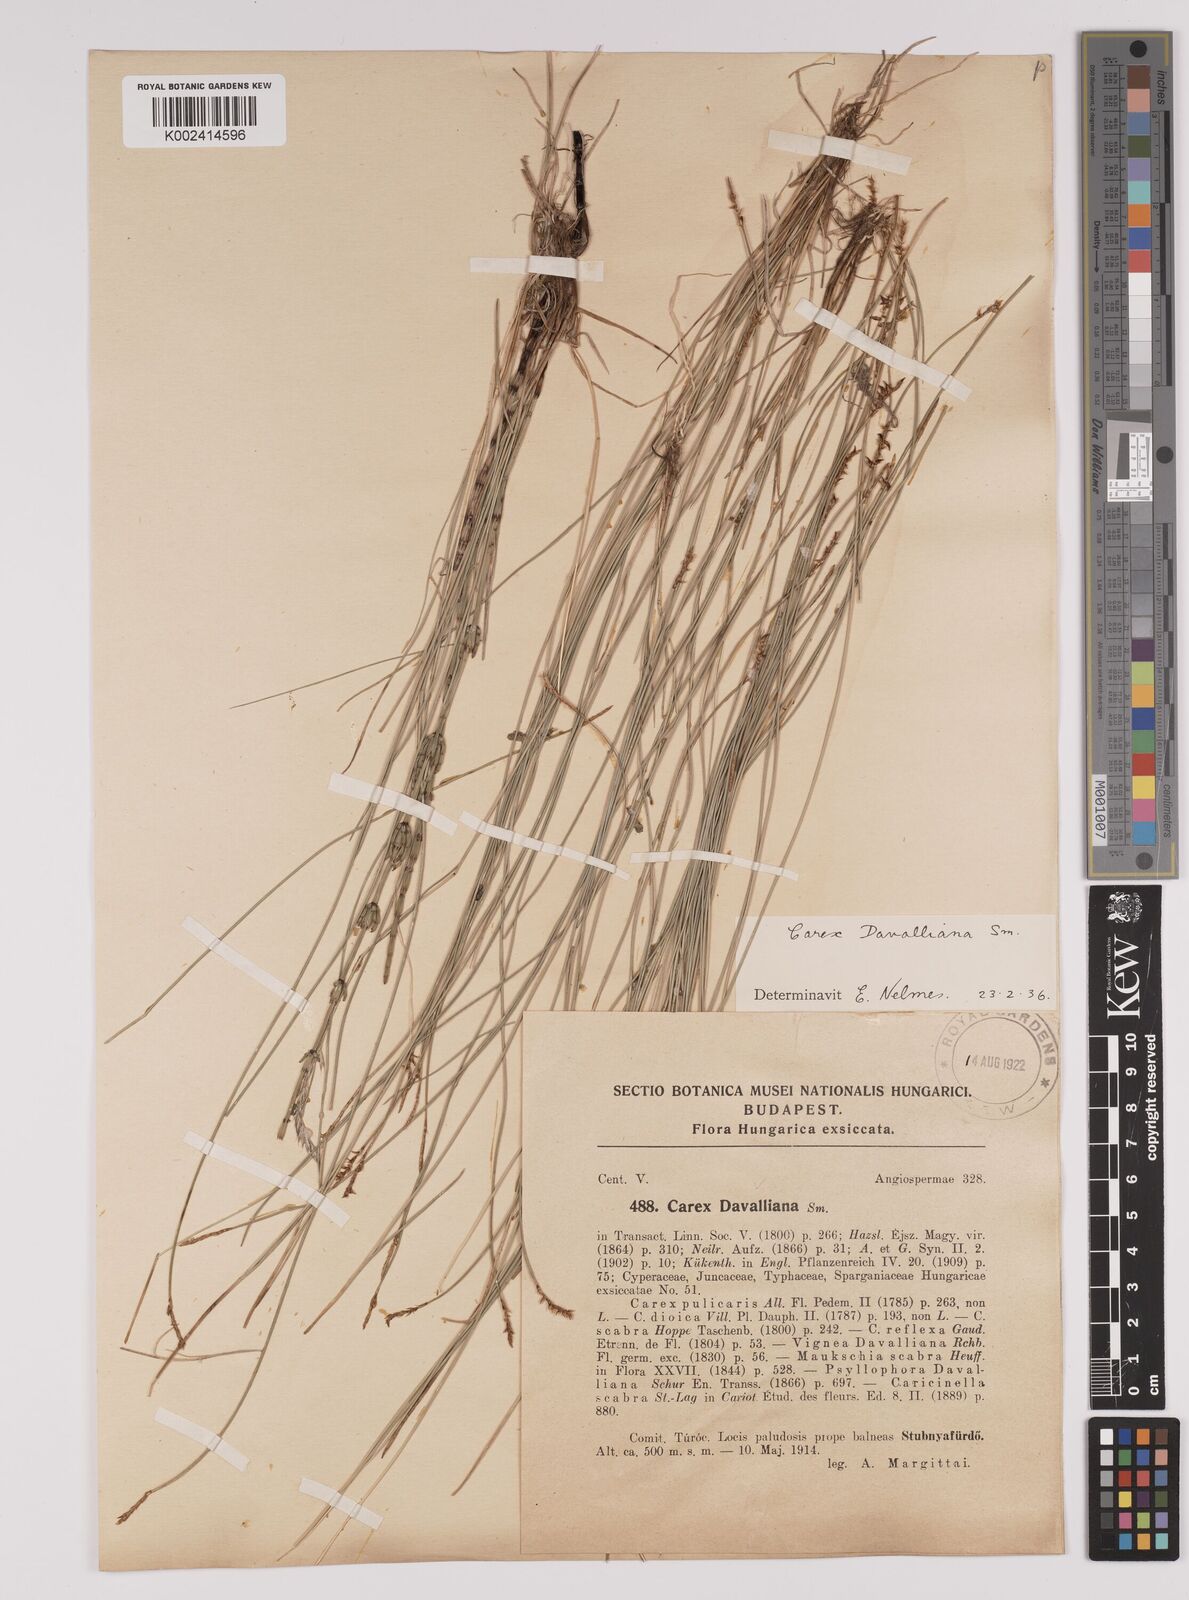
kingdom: Plantae
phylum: Tracheophyta
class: Liliopsida
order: Poales
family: Cyperaceae
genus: Carex
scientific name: Carex davalliana
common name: Davall's sedge
